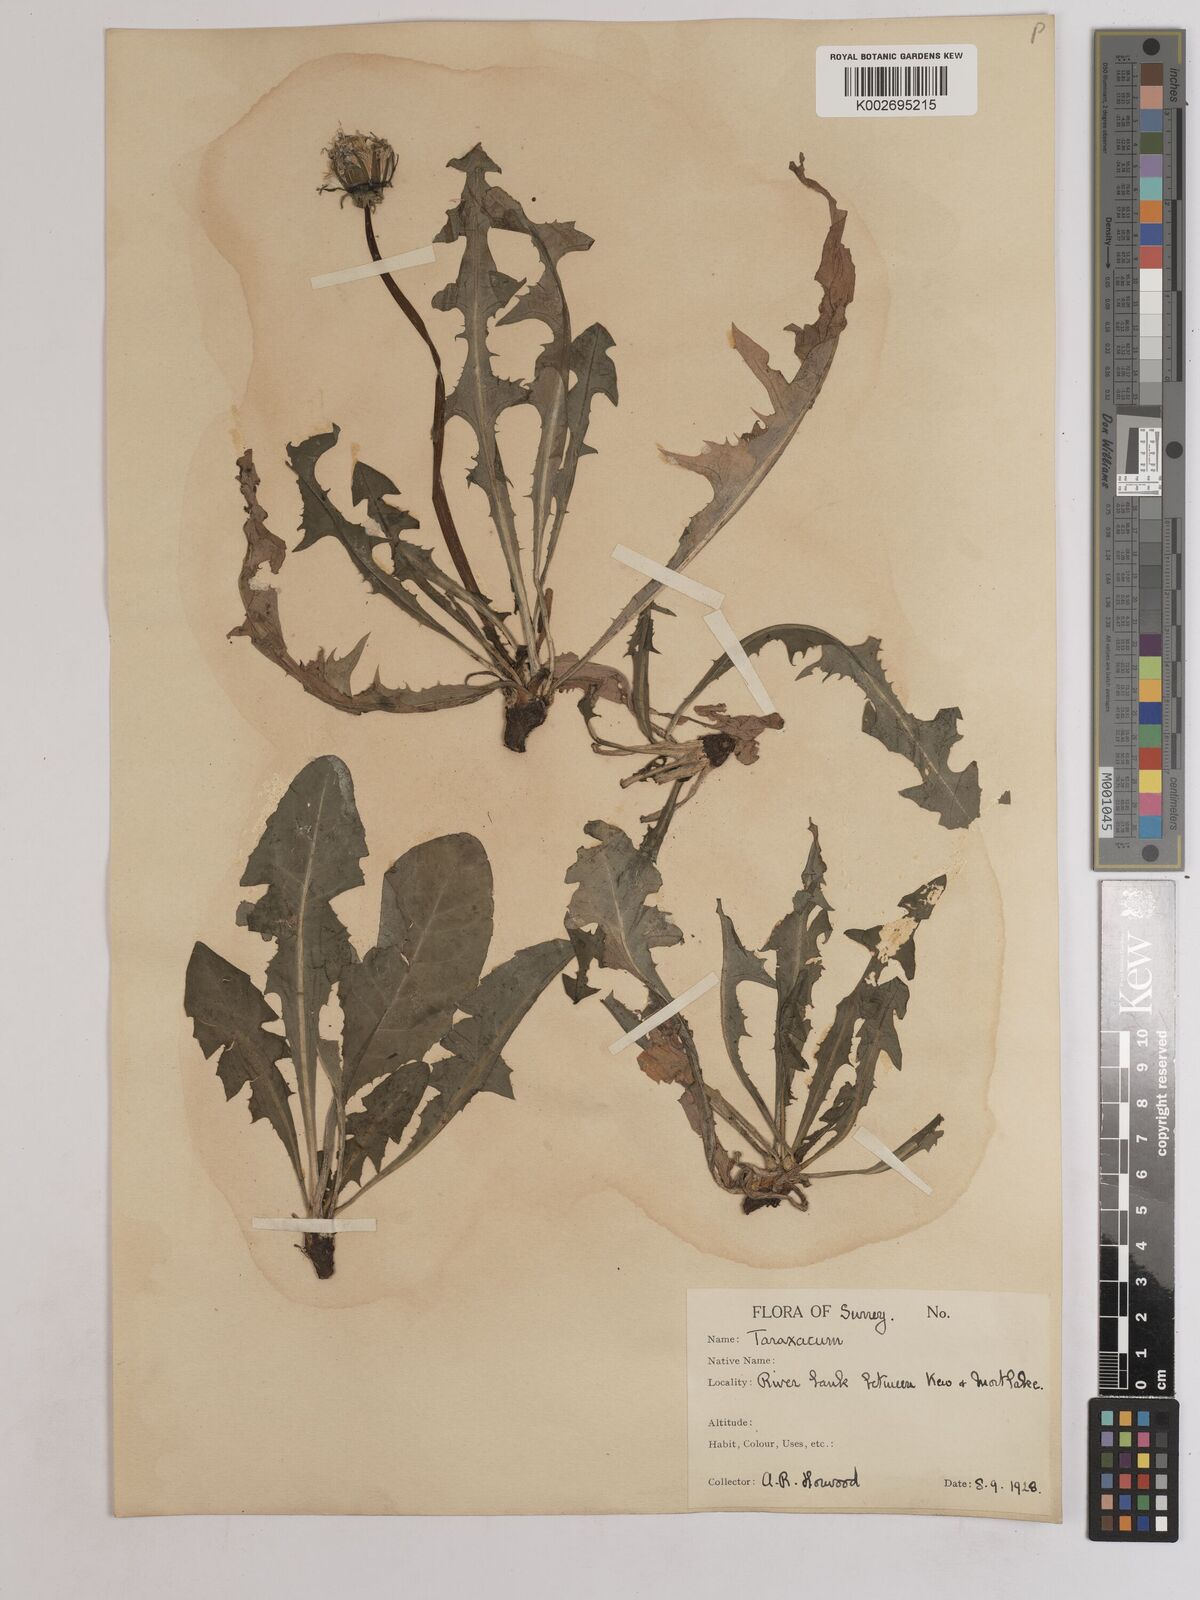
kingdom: Plantae
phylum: Tracheophyta
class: Magnoliopsida
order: Asterales
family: Asteraceae
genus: Taraxacum
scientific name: Taraxacum officinale
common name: Common dandelion
